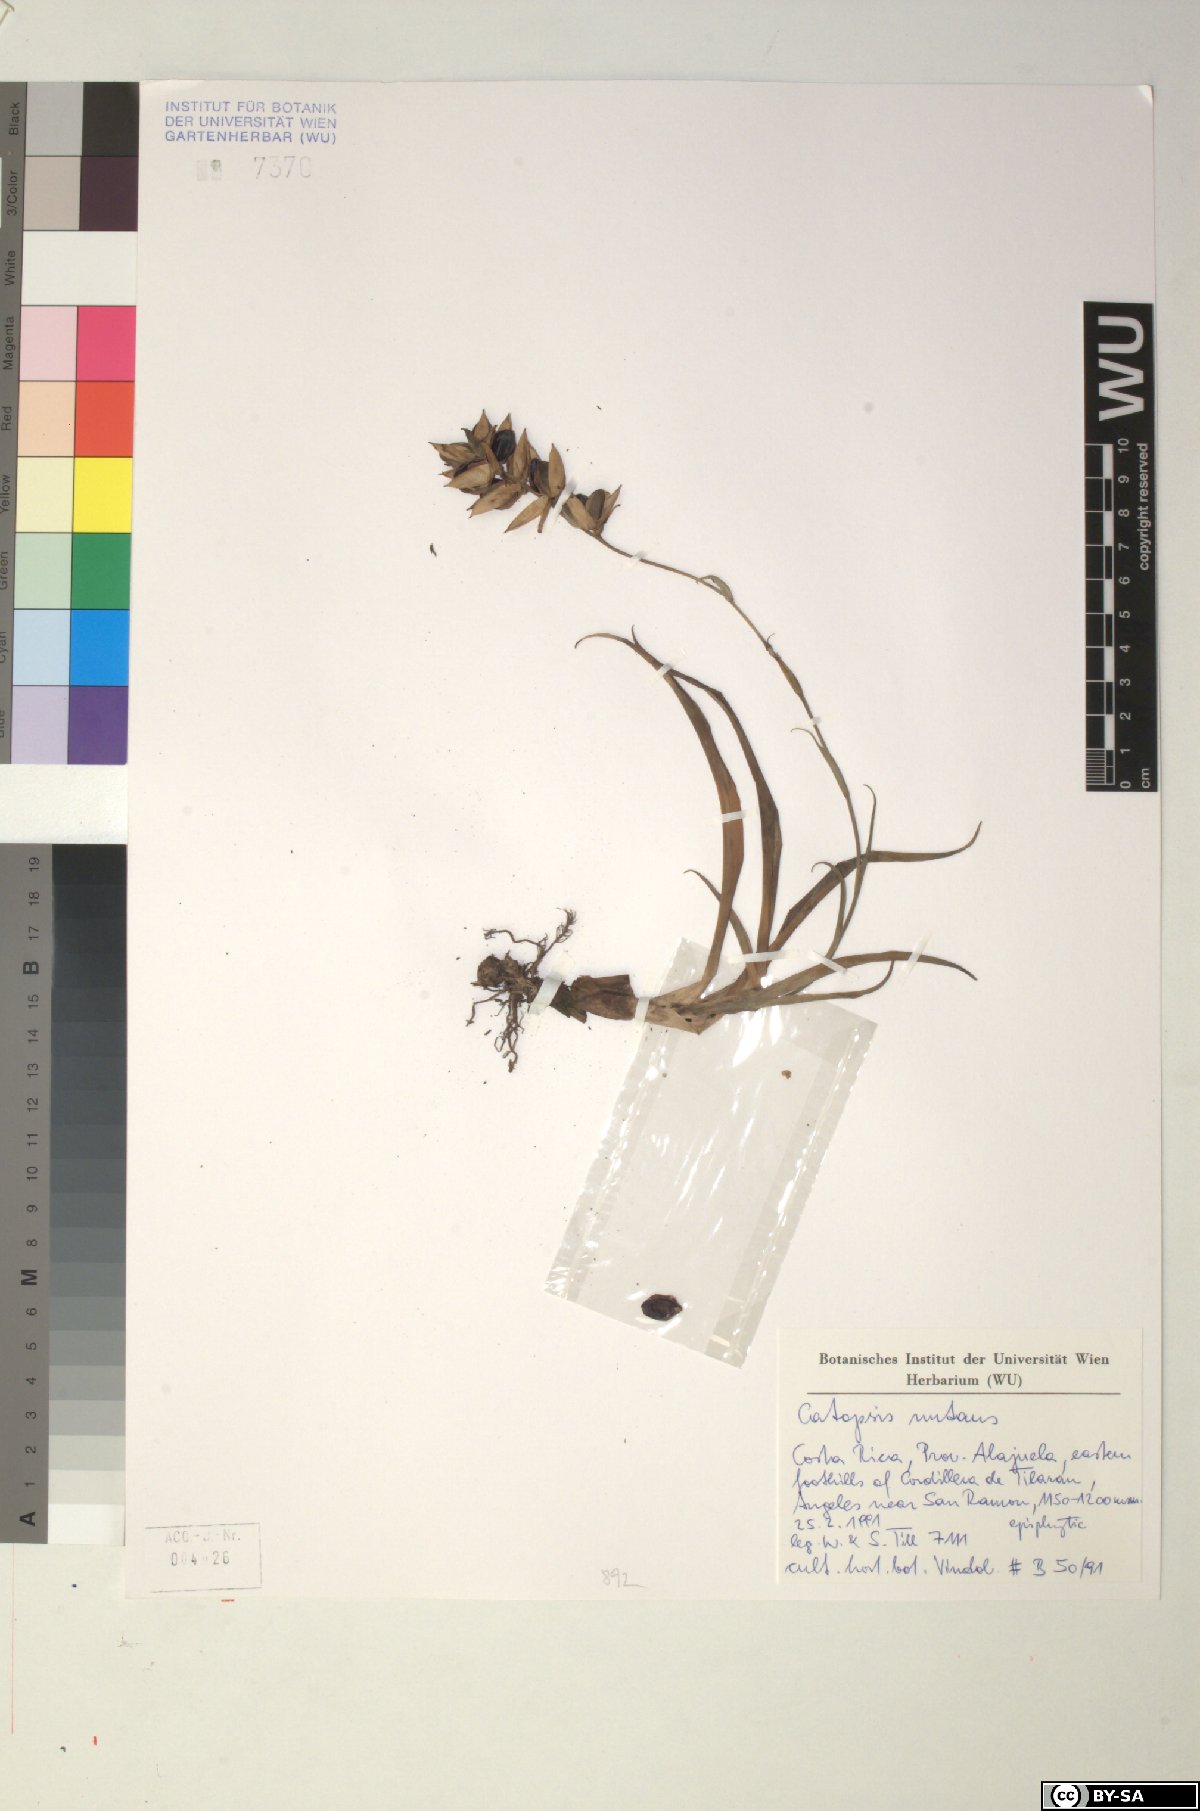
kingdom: Plantae
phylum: Tracheophyta
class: Liliopsida
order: Poales
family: Bromeliaceae
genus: Catopsis
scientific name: Catopsis nutans
